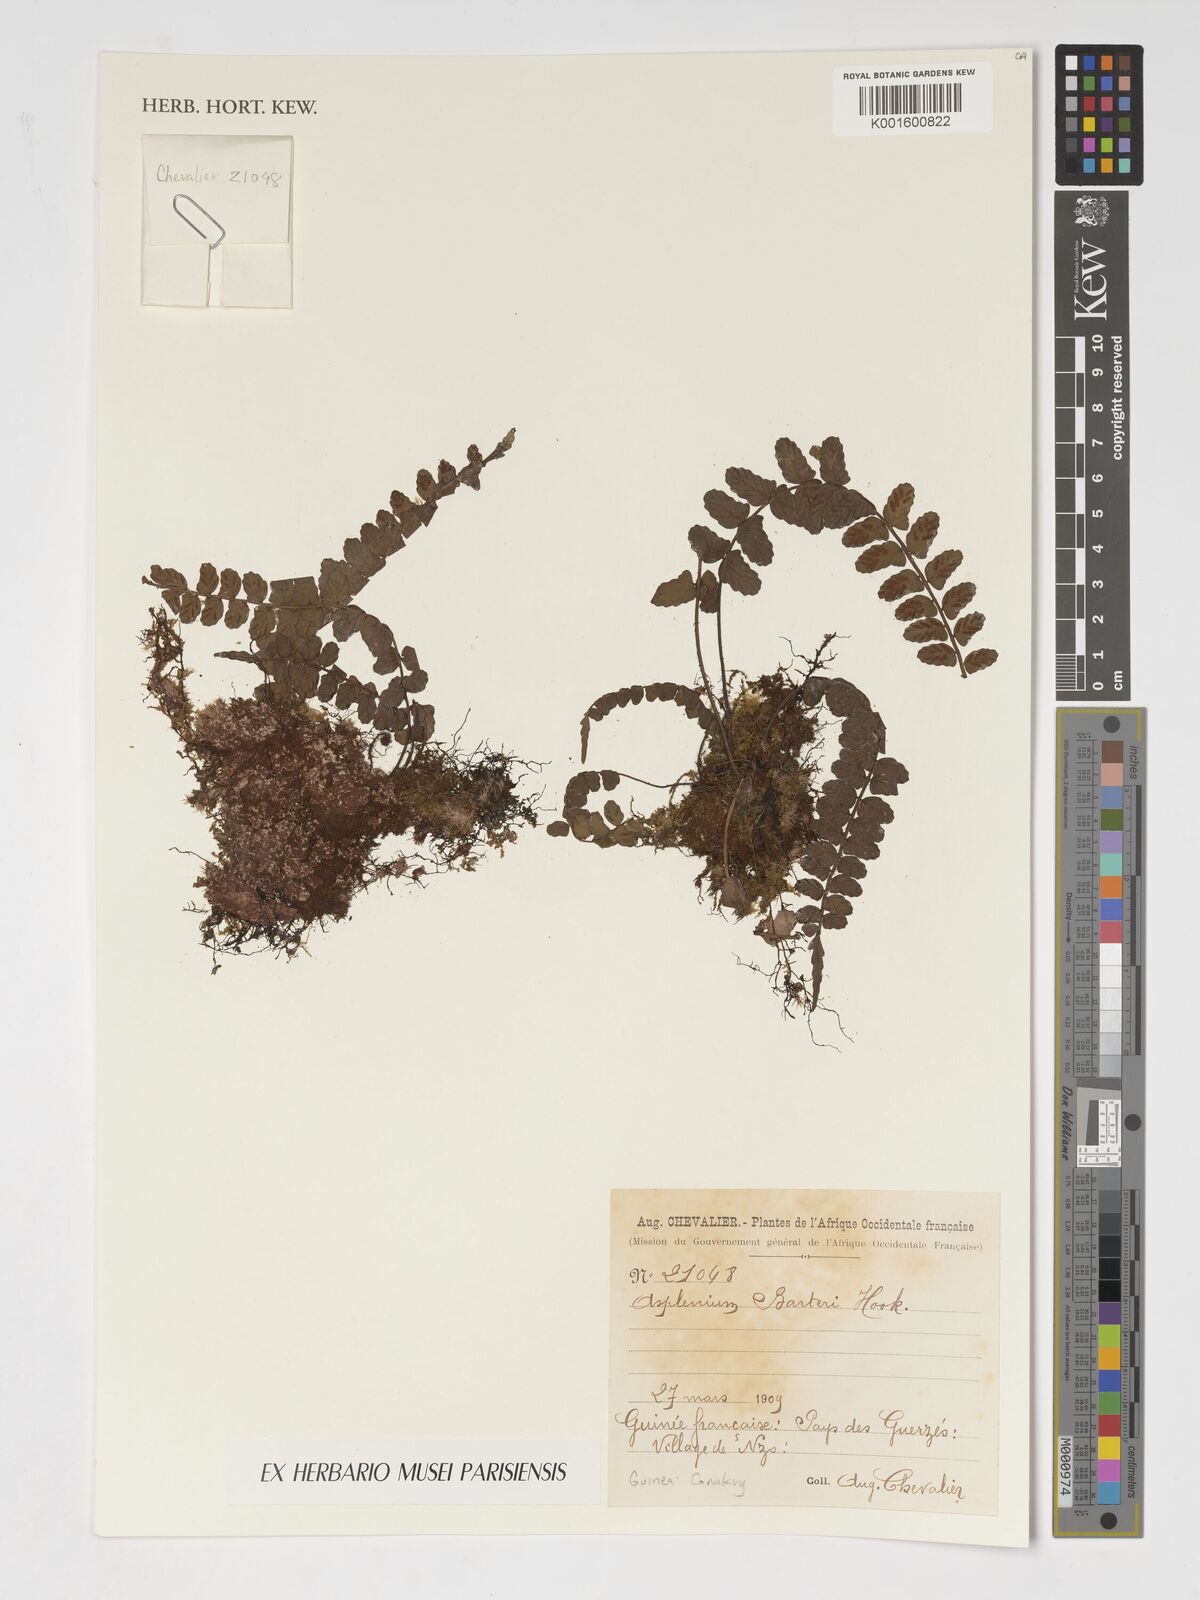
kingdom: Plantae
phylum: Tracheophyta
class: Polypodiopsida
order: Polypodiales
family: Aspleniaceae
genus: Asplenium
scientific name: Asplenium barteri
